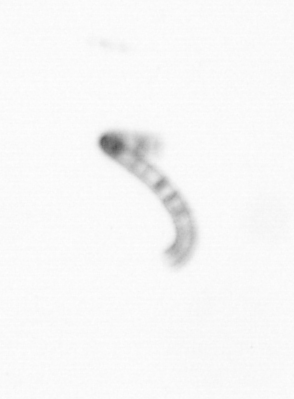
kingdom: Chromista
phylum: Ochrophyta
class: Bacillariophyceae
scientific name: Bacillariophyceae
